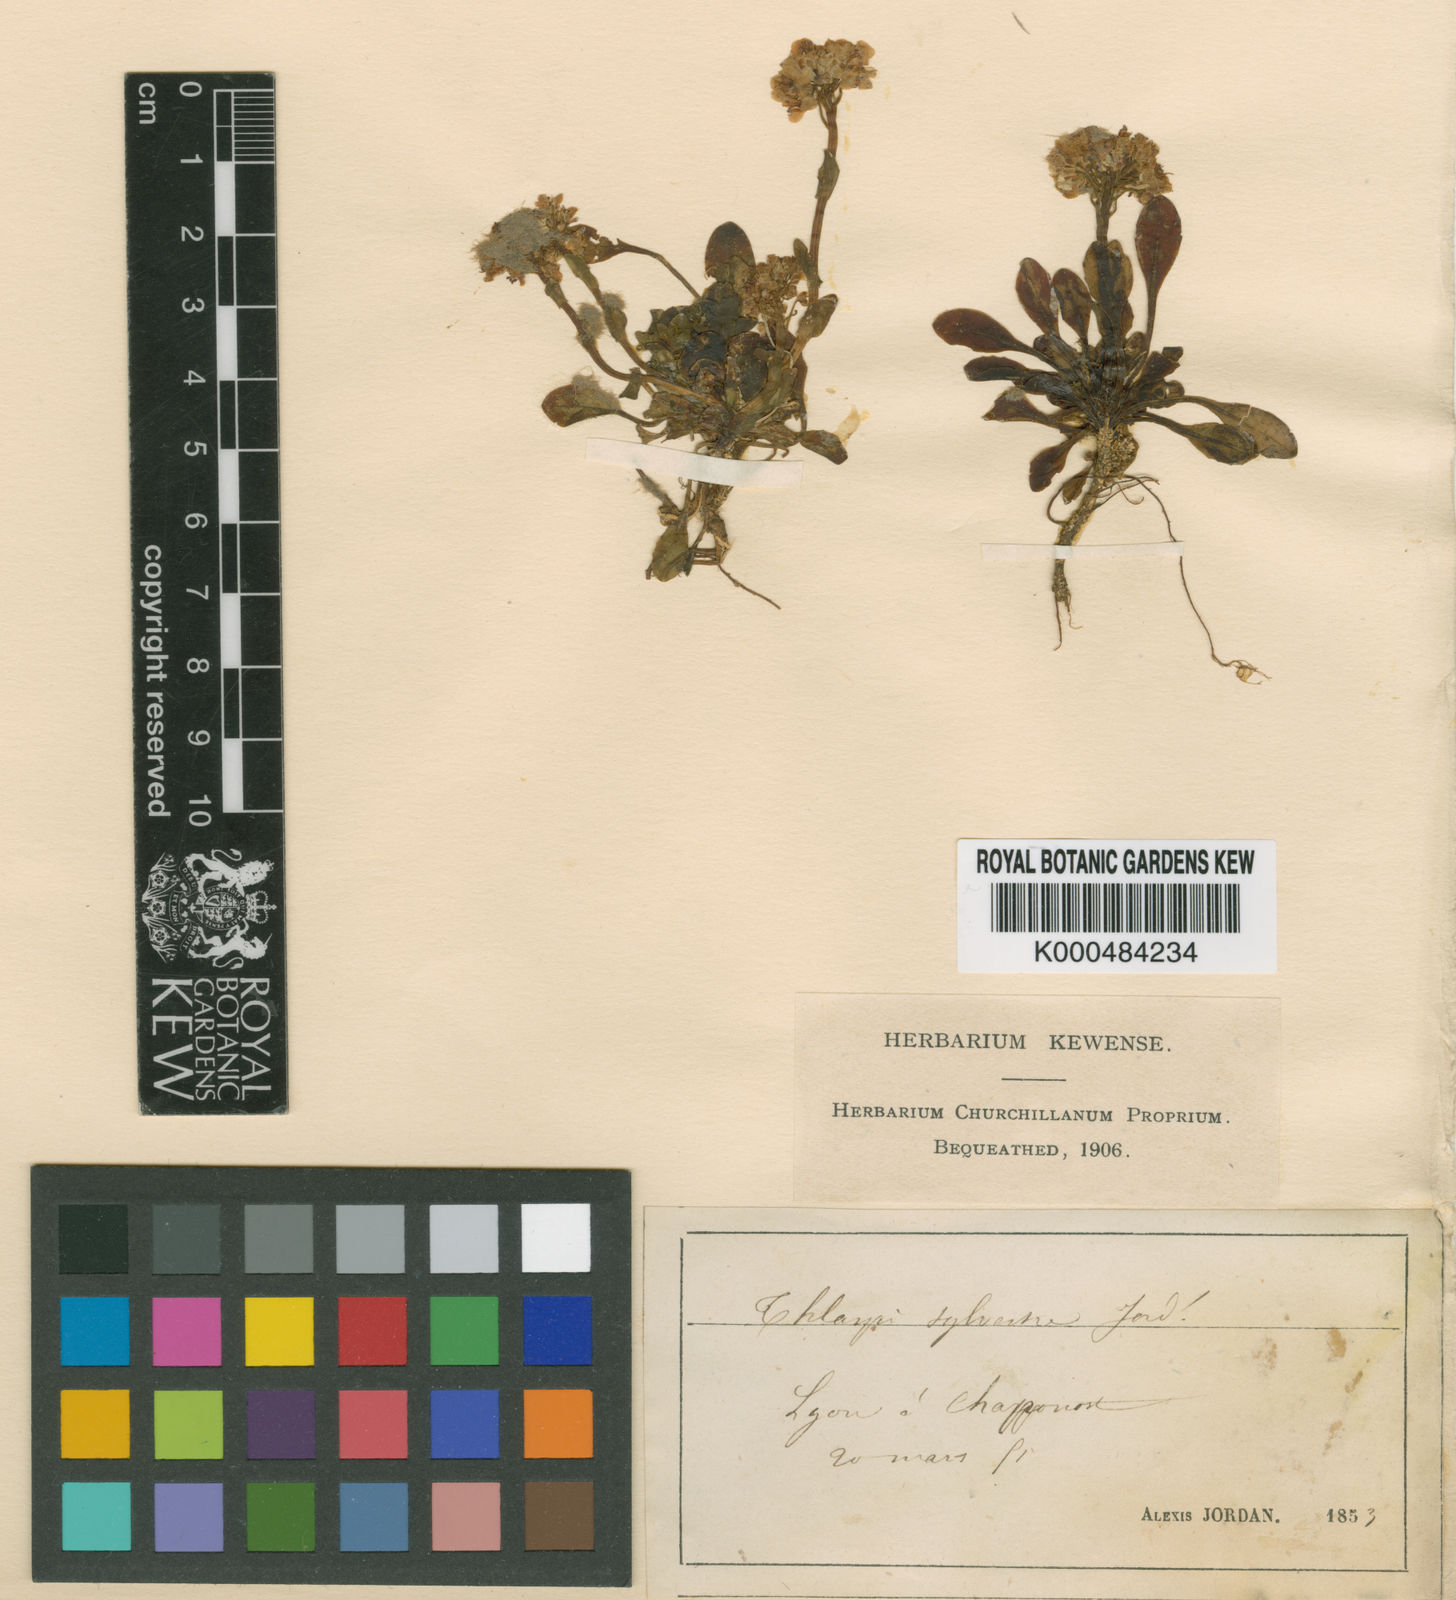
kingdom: Plantae
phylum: Tracheophyta
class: Magnoliopsida
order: Brassicales
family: Brassicaceae
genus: Noccaea
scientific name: Noccaea alpestris
